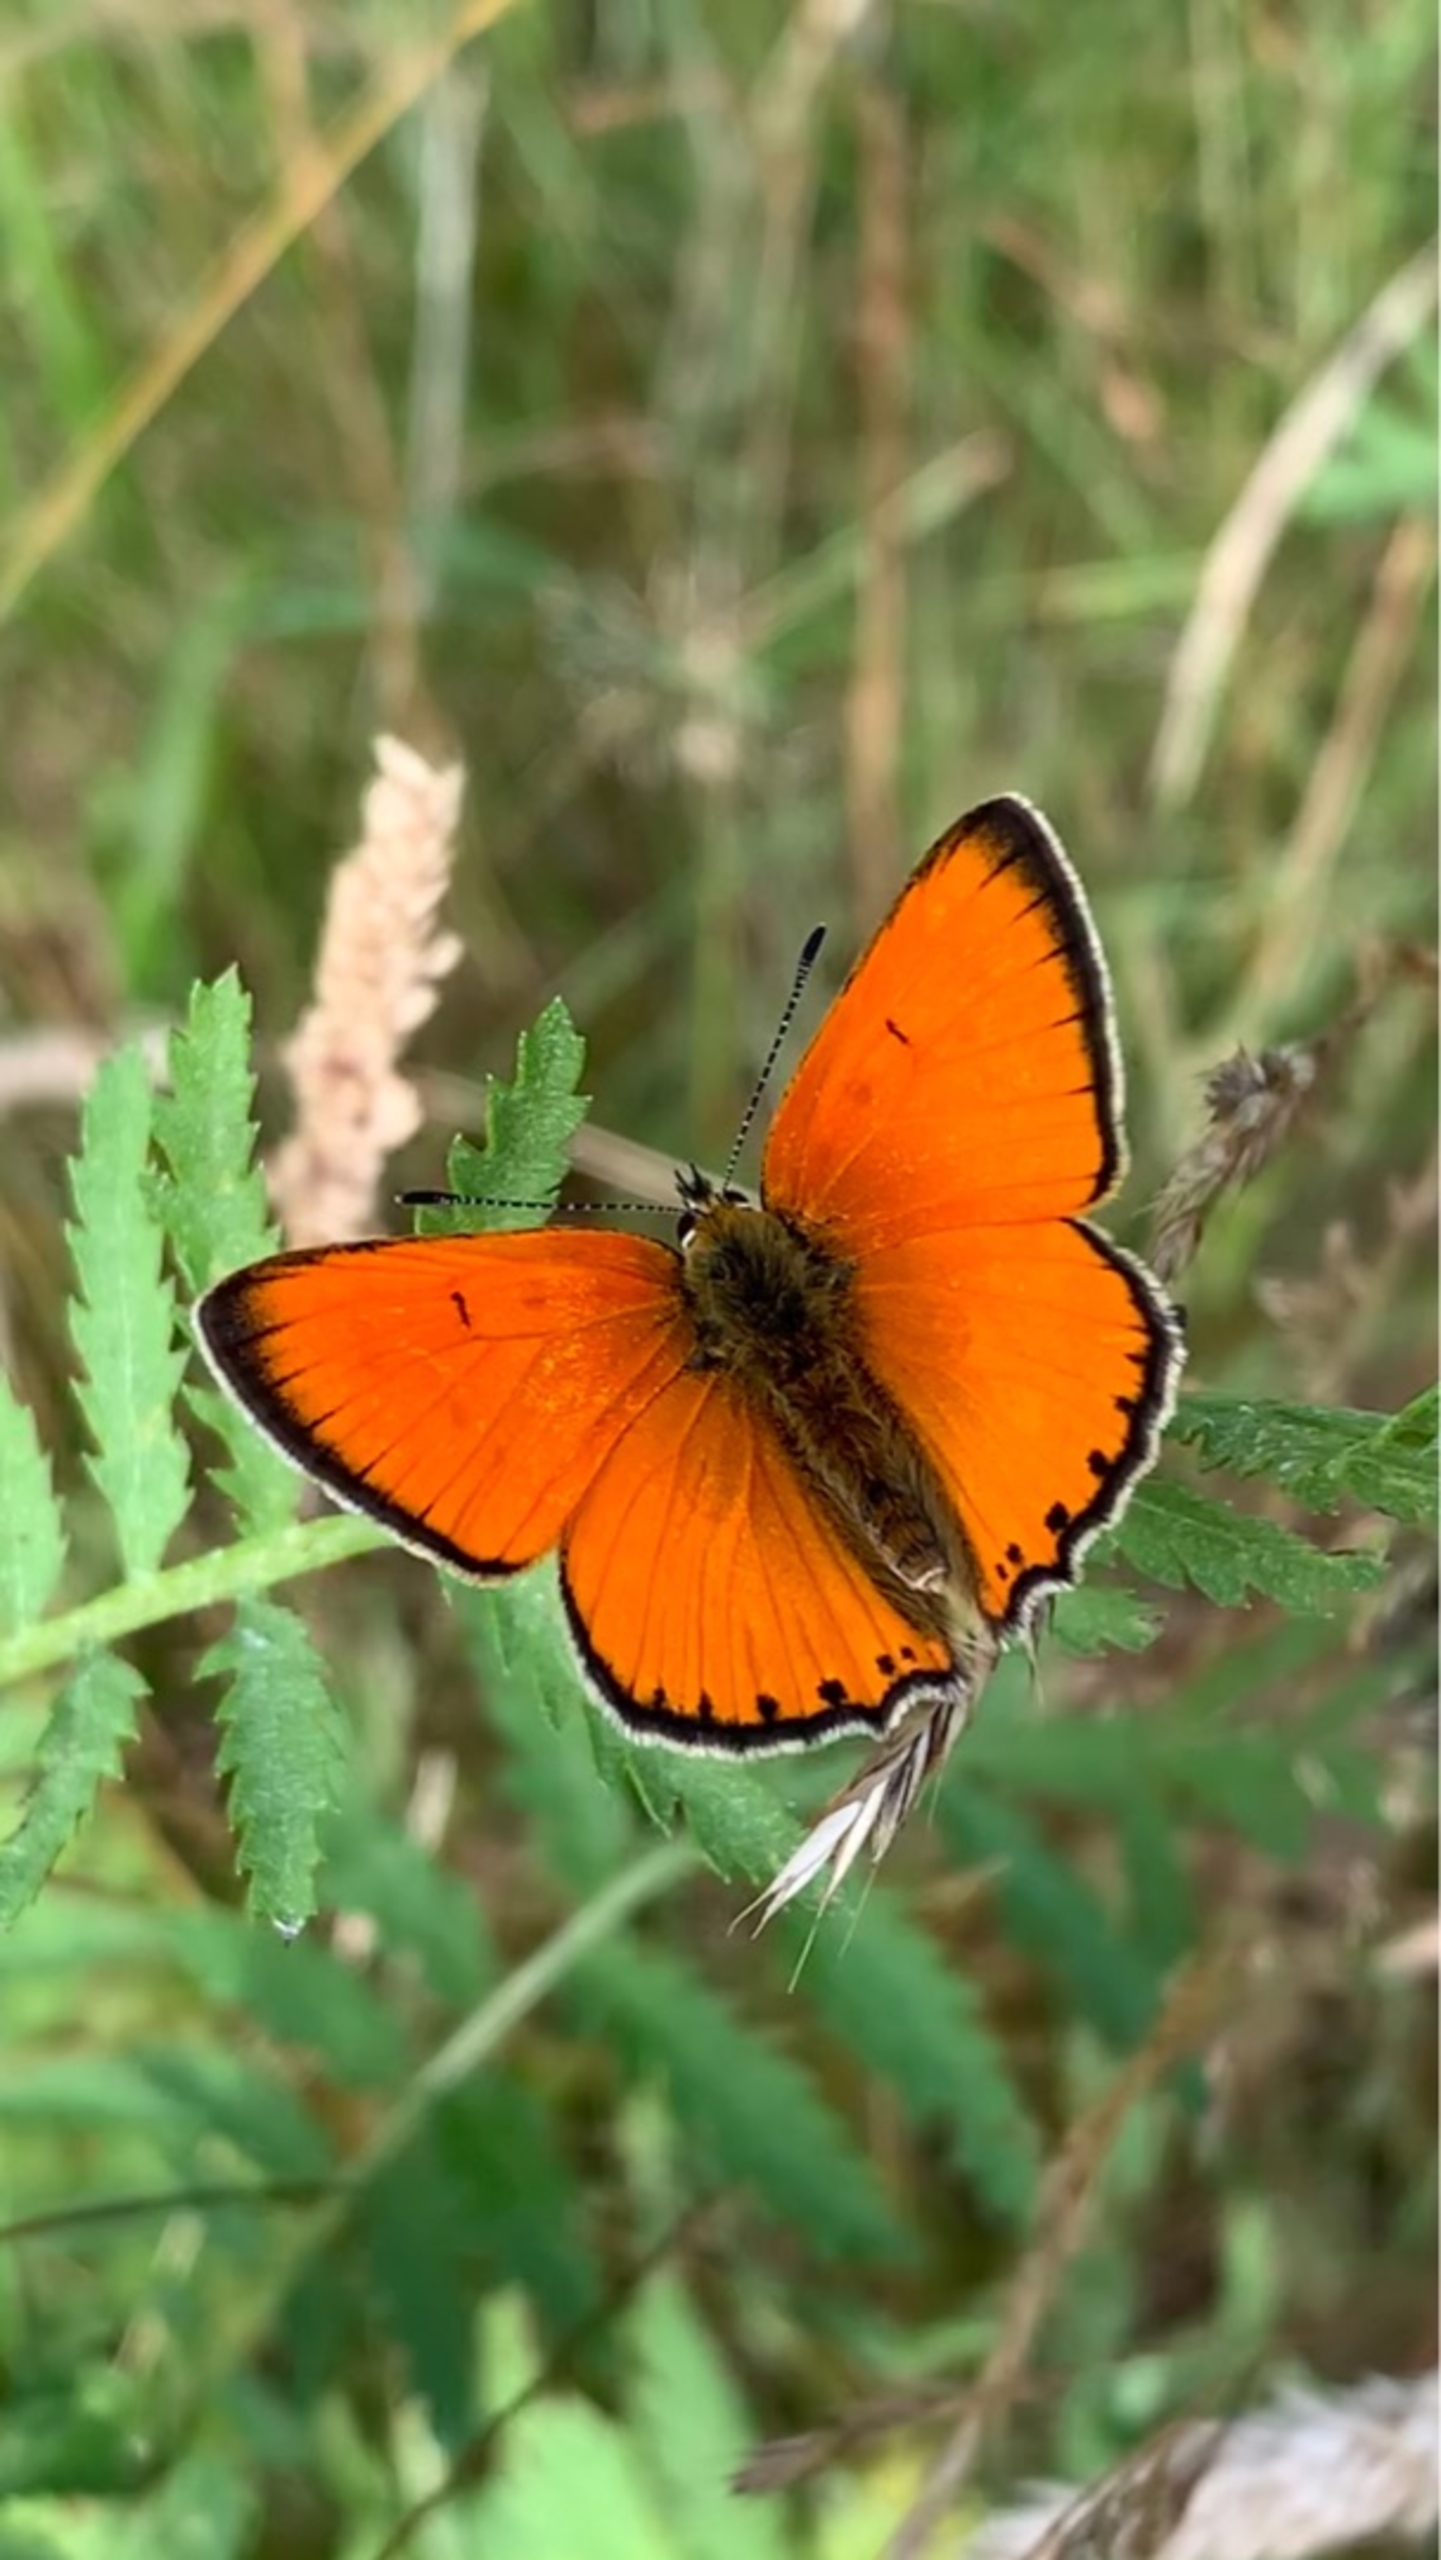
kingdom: Animalia
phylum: Arthropoda
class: Insecta
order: Lepidoptera
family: Lycaenidae
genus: Lycaena
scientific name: Lycaena virgaureae
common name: Dukatsommerfugl
